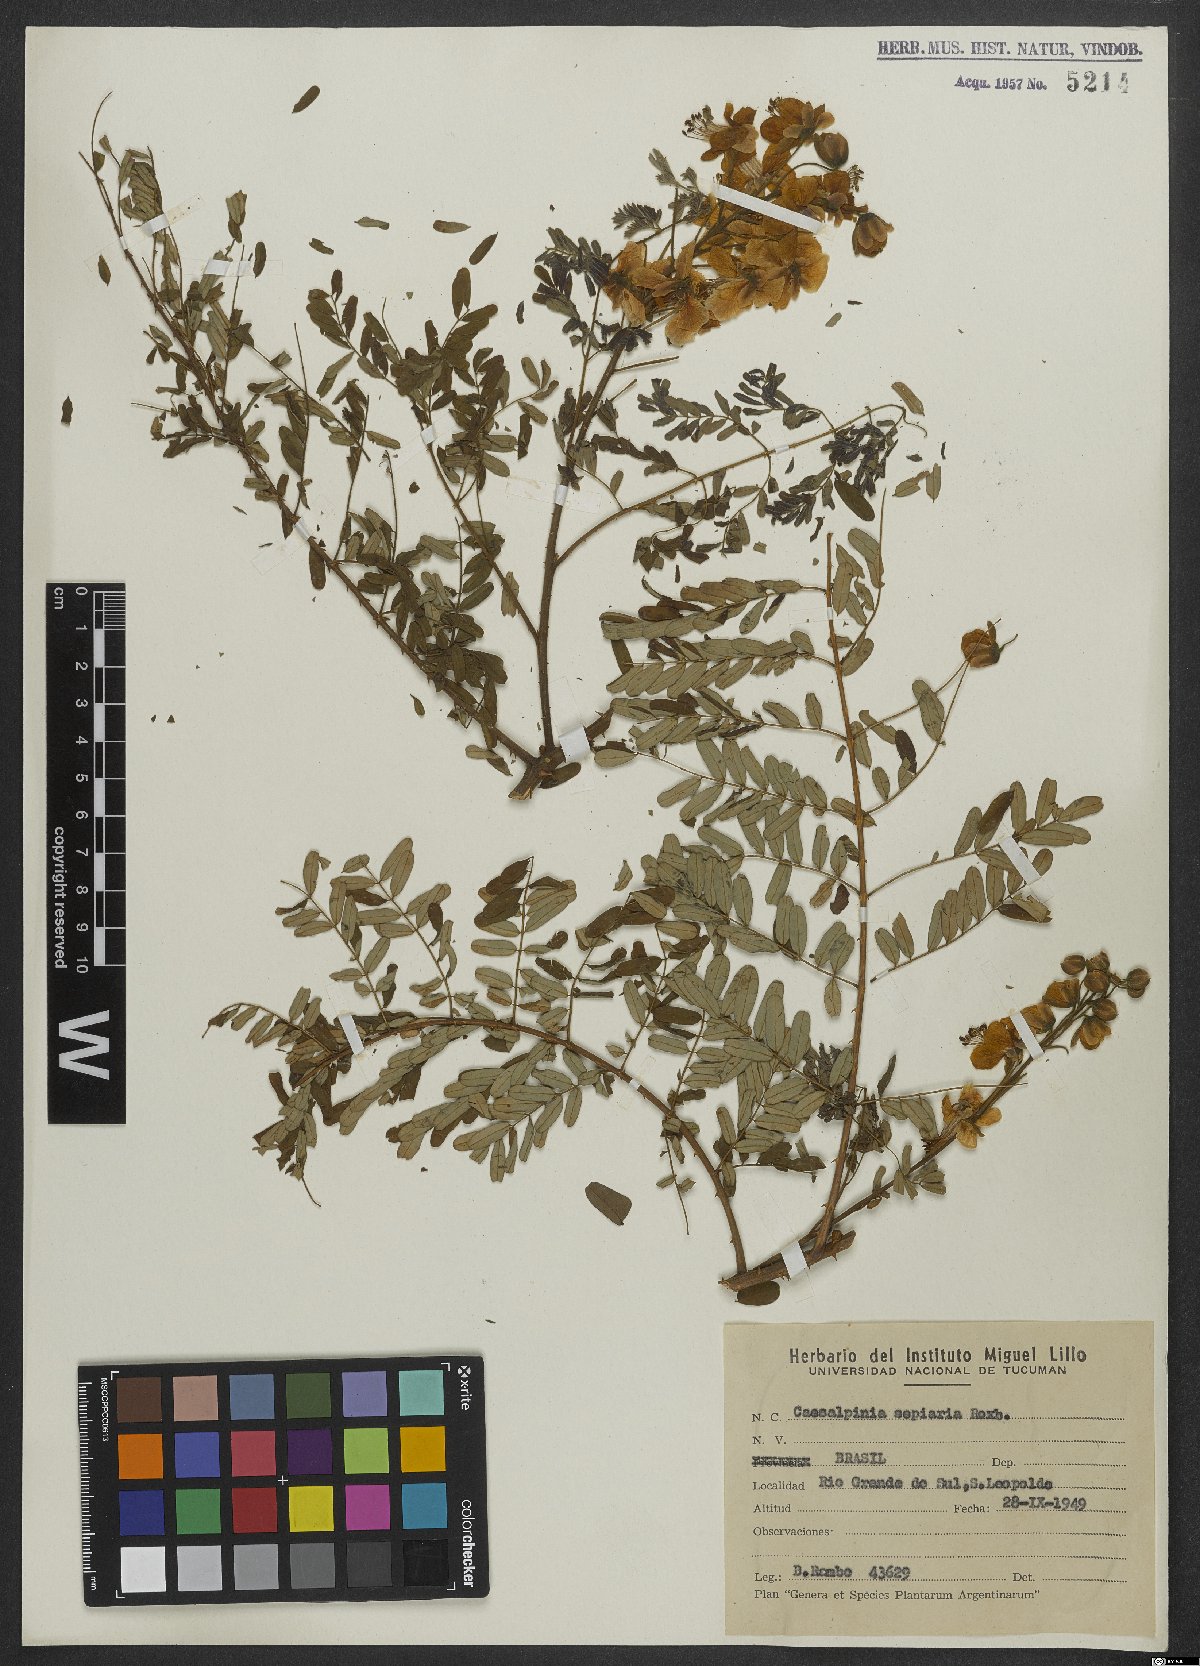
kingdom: Plantae
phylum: Tracheophyta
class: Magnoliopsida
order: Fabales
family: Fabaceae
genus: Biancaea
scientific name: Biancaea decapetala
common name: Cat's claw
